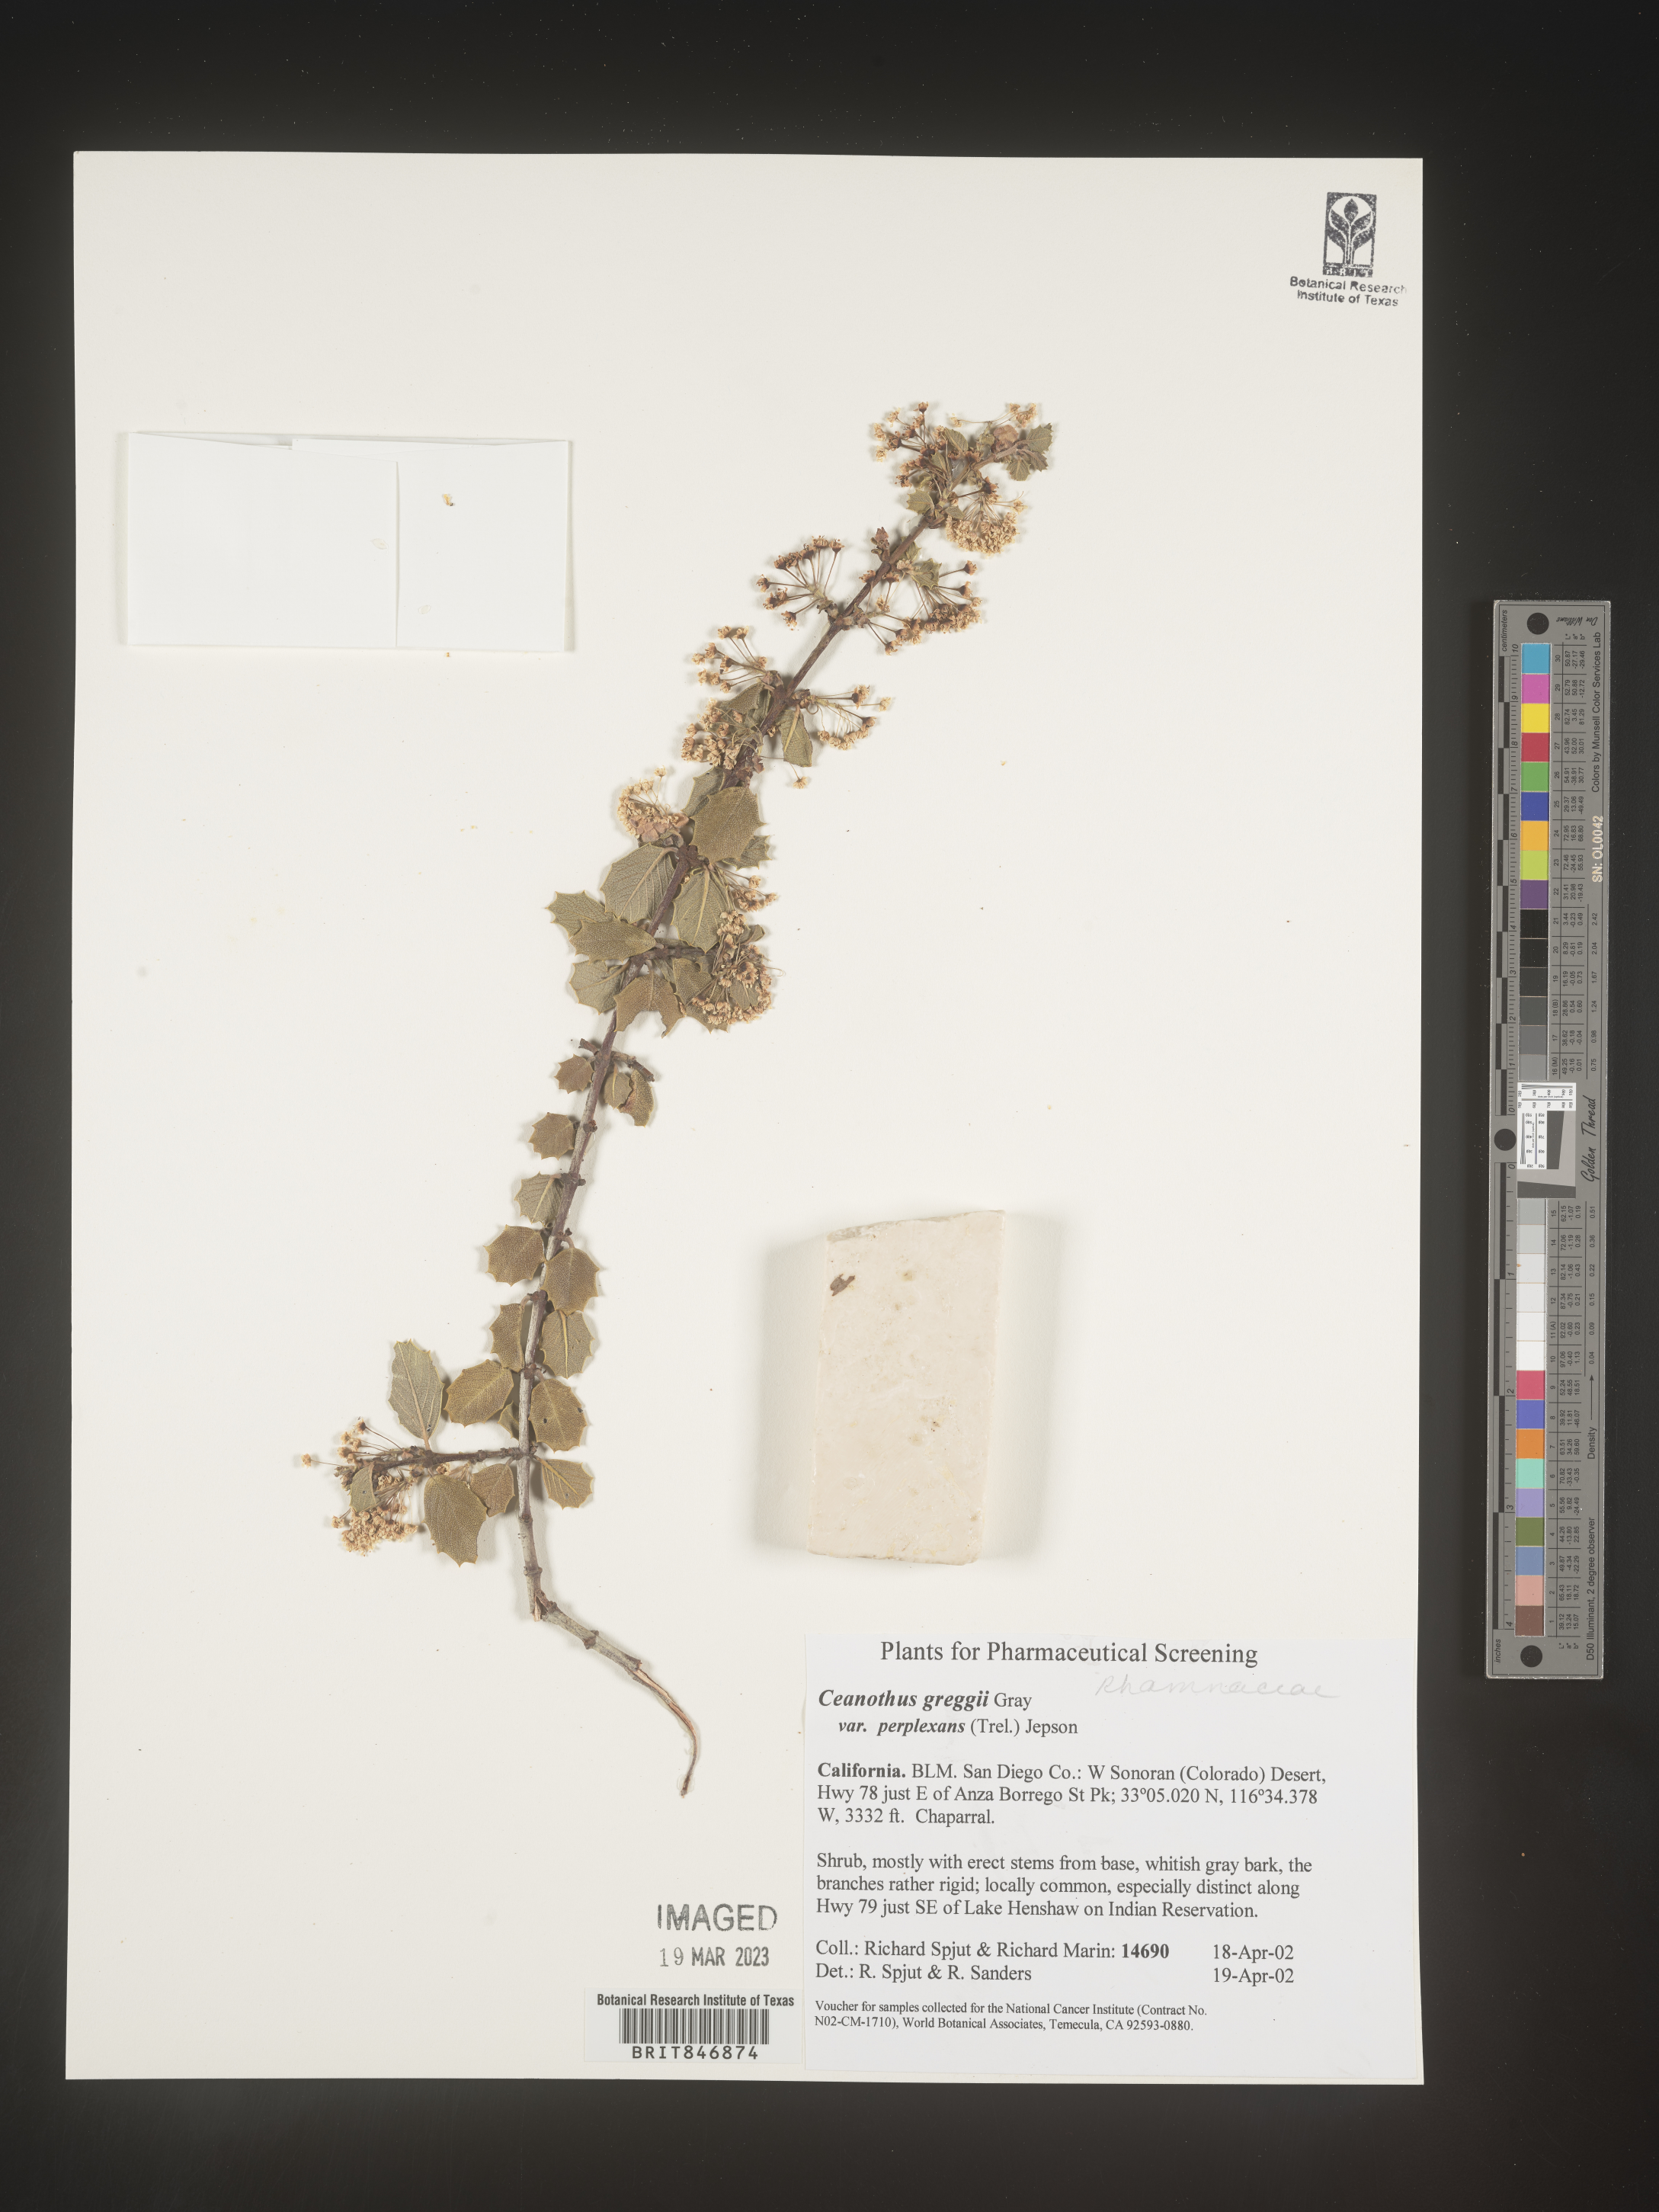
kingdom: Plantae
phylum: Tracheophyta
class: Magnoliopsida
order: Rosales
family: Rhamnaceae
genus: Ceanothus
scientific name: Ceanothus
